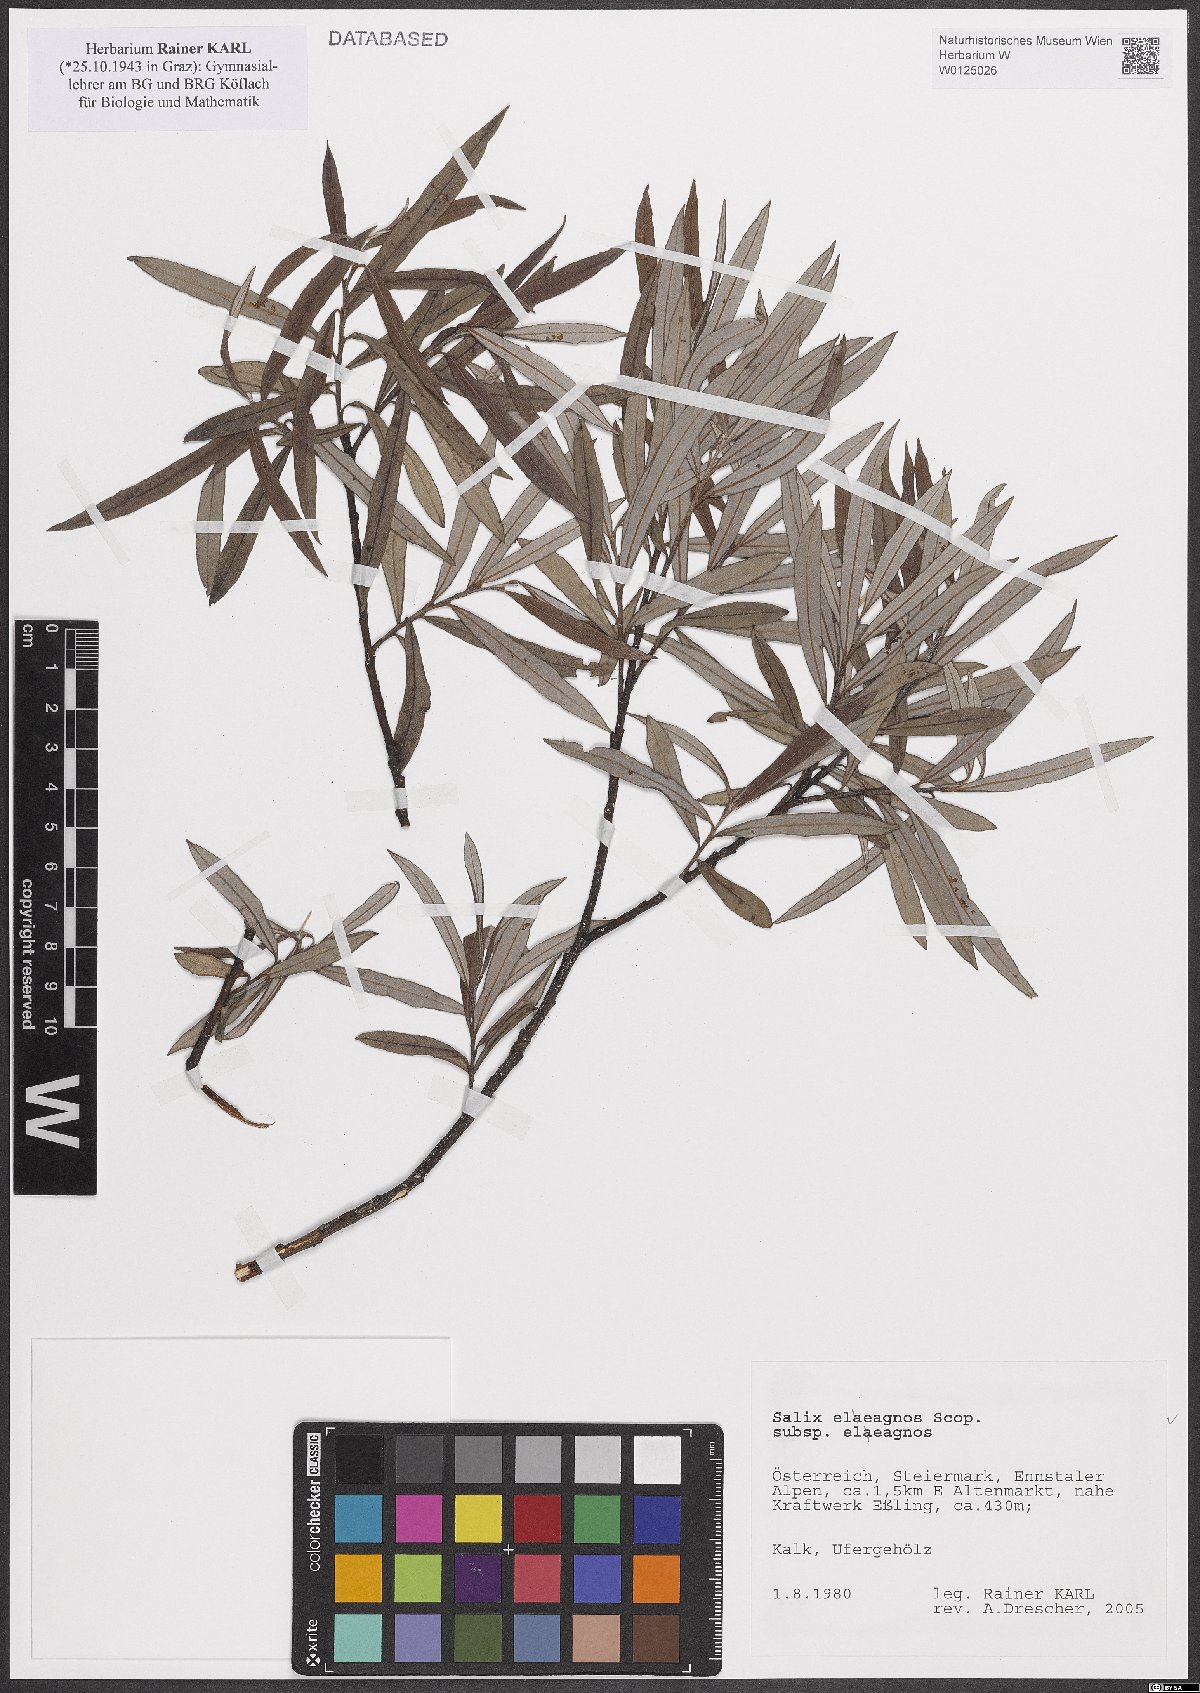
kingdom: Plantae
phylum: Tracheophyta
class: Magnoliopsida
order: Malpighiales
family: Salicaceae
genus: Salix
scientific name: Salix eleagnos
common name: Elaeagnus willow
